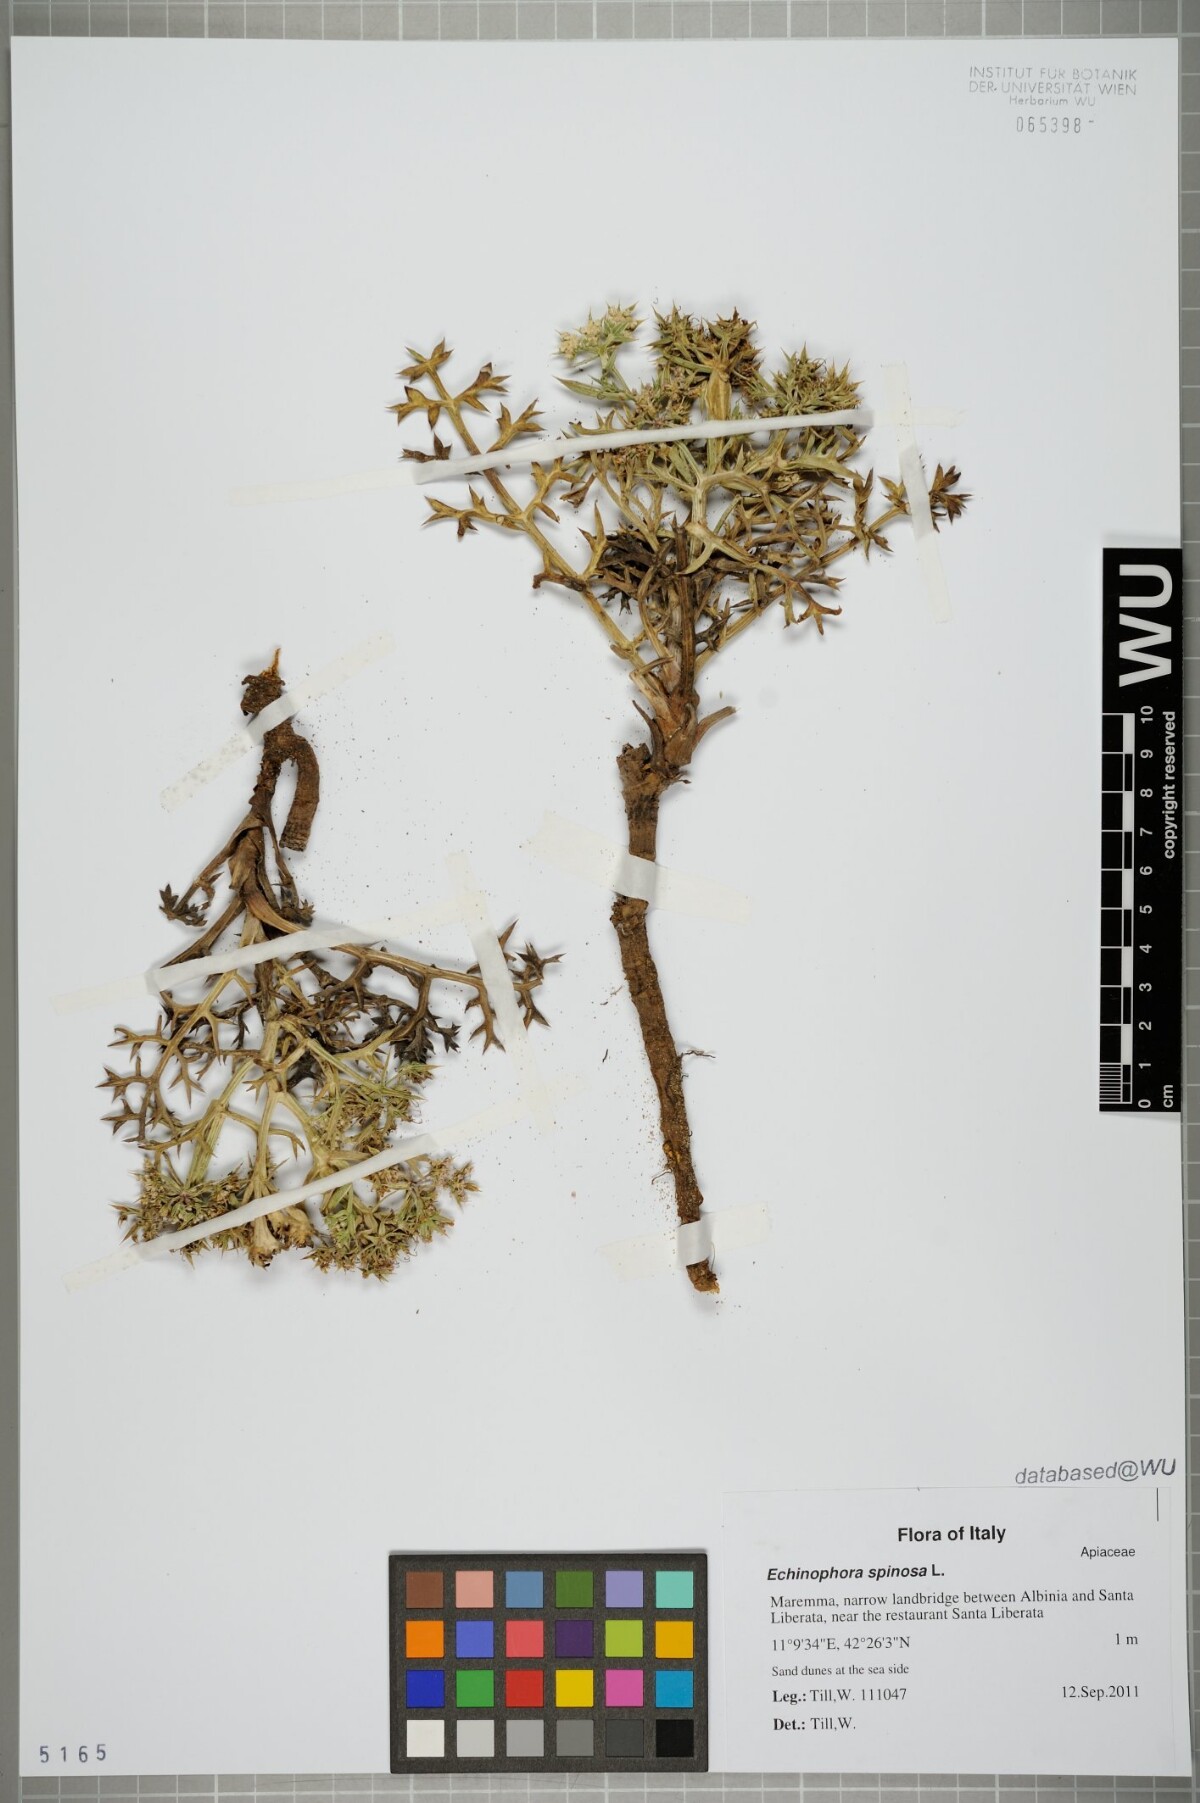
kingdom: Plantae
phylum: Tracheophyta
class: Magnoliopsida
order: Apiales
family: Apiaceae
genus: Echinophora
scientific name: Echinophora spinosa
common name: Prickly samphire
